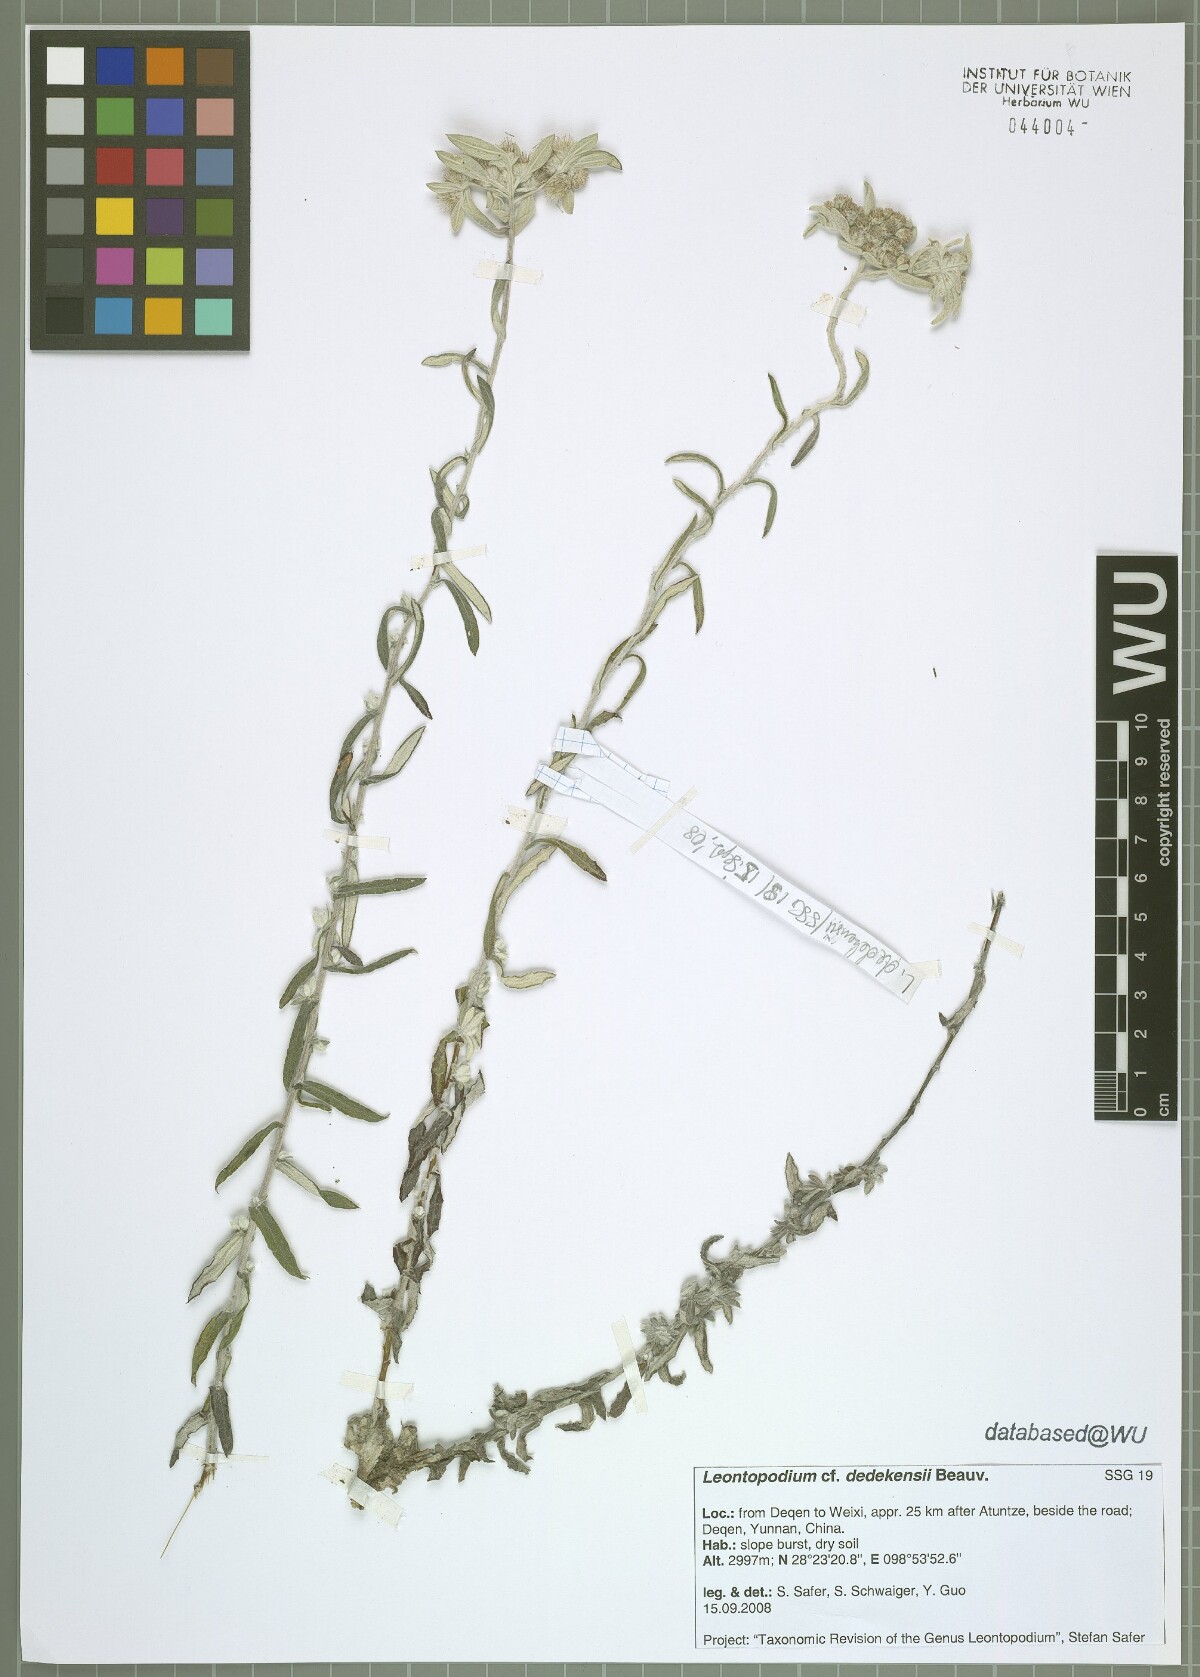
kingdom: Plantae
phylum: Tracheophyta
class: Magnoliopsida
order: Asterales
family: Asteraceae
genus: Leontopodium
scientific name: Leontopodium dedekensii
